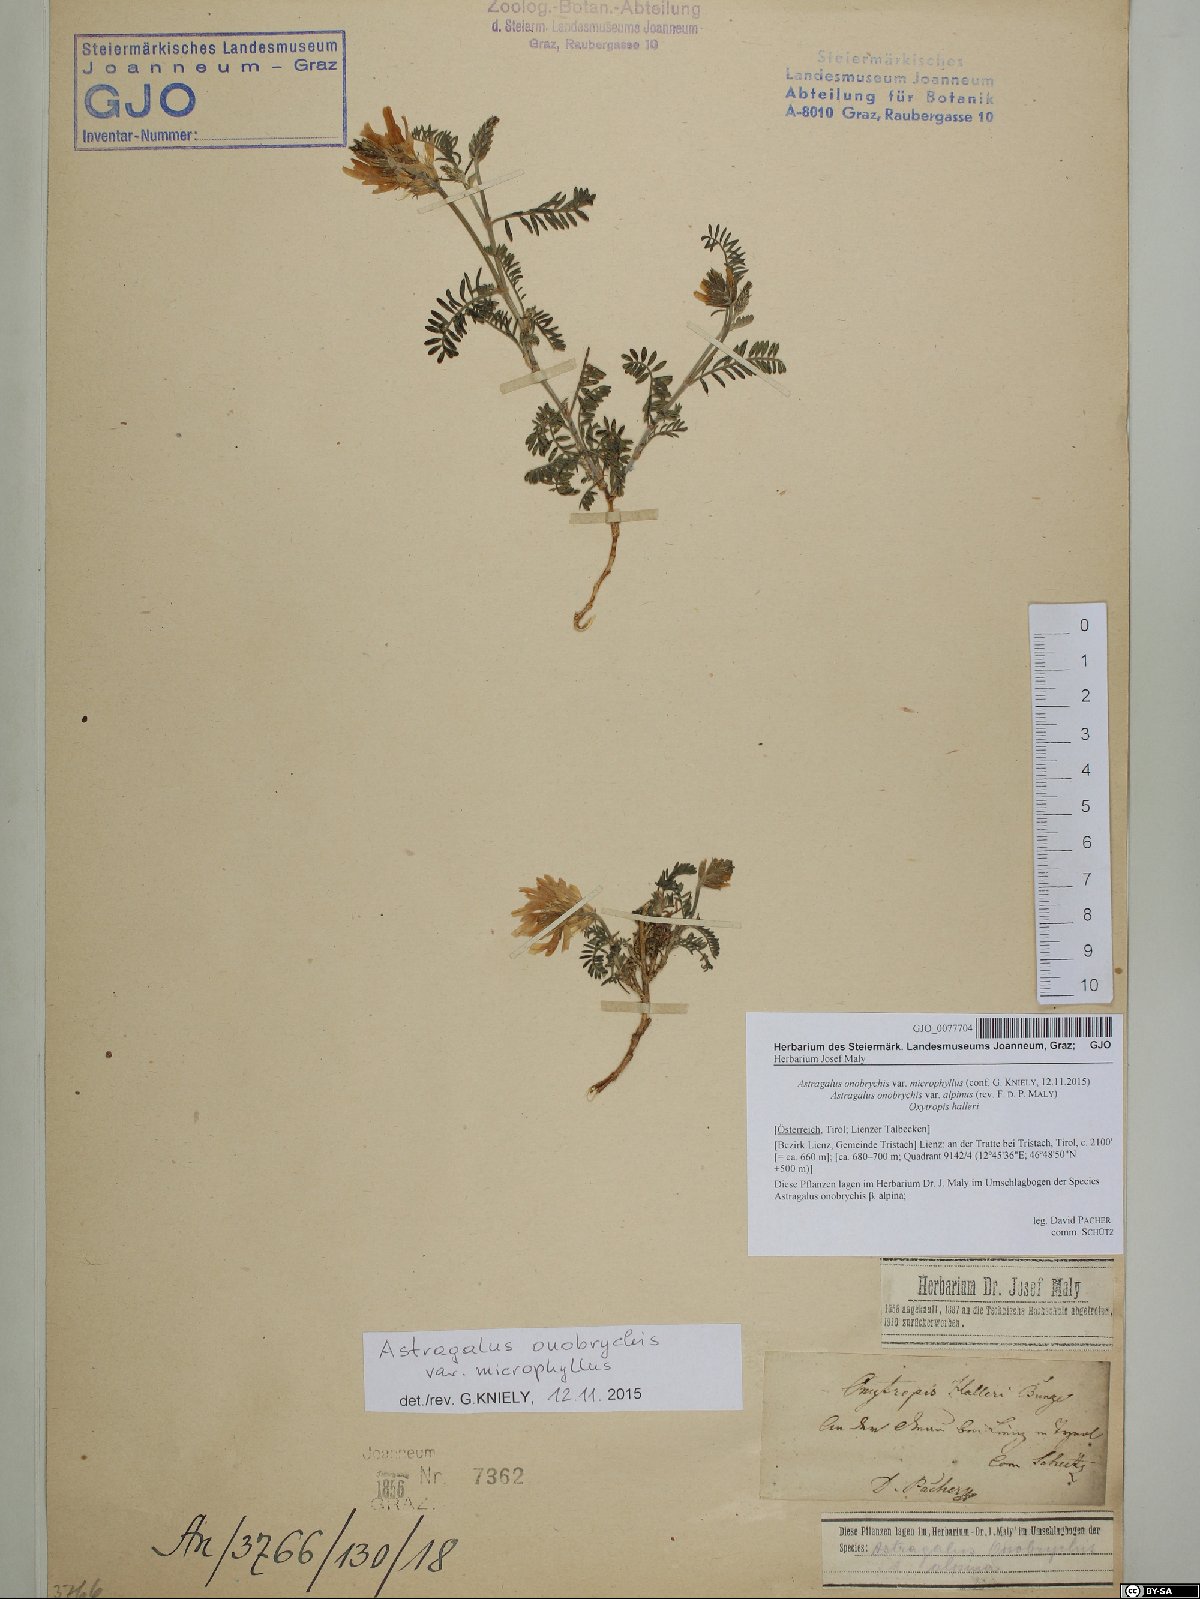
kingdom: Plantae
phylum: Tracheophyta
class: Magnoliopsida
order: Fabales
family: Fabaceae
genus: Astragalus
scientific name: Astragalus onobrychis
